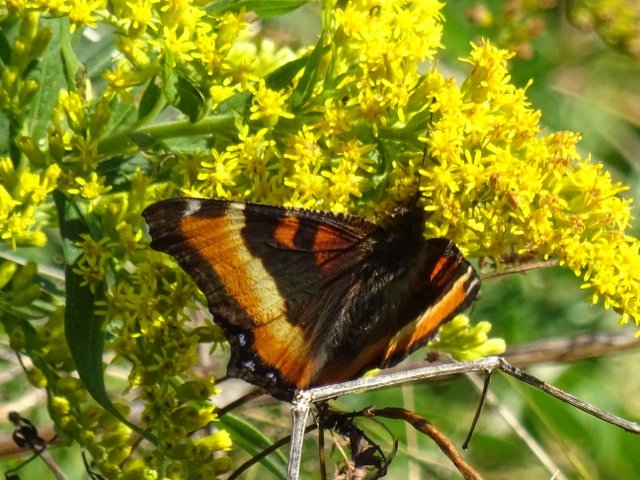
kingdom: Animalia
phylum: Arthropoda
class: Insecta
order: Lepidoptera
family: Nymphalidae
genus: Aglais
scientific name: Aglais milberti
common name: Milbert's Tortoiseshell
